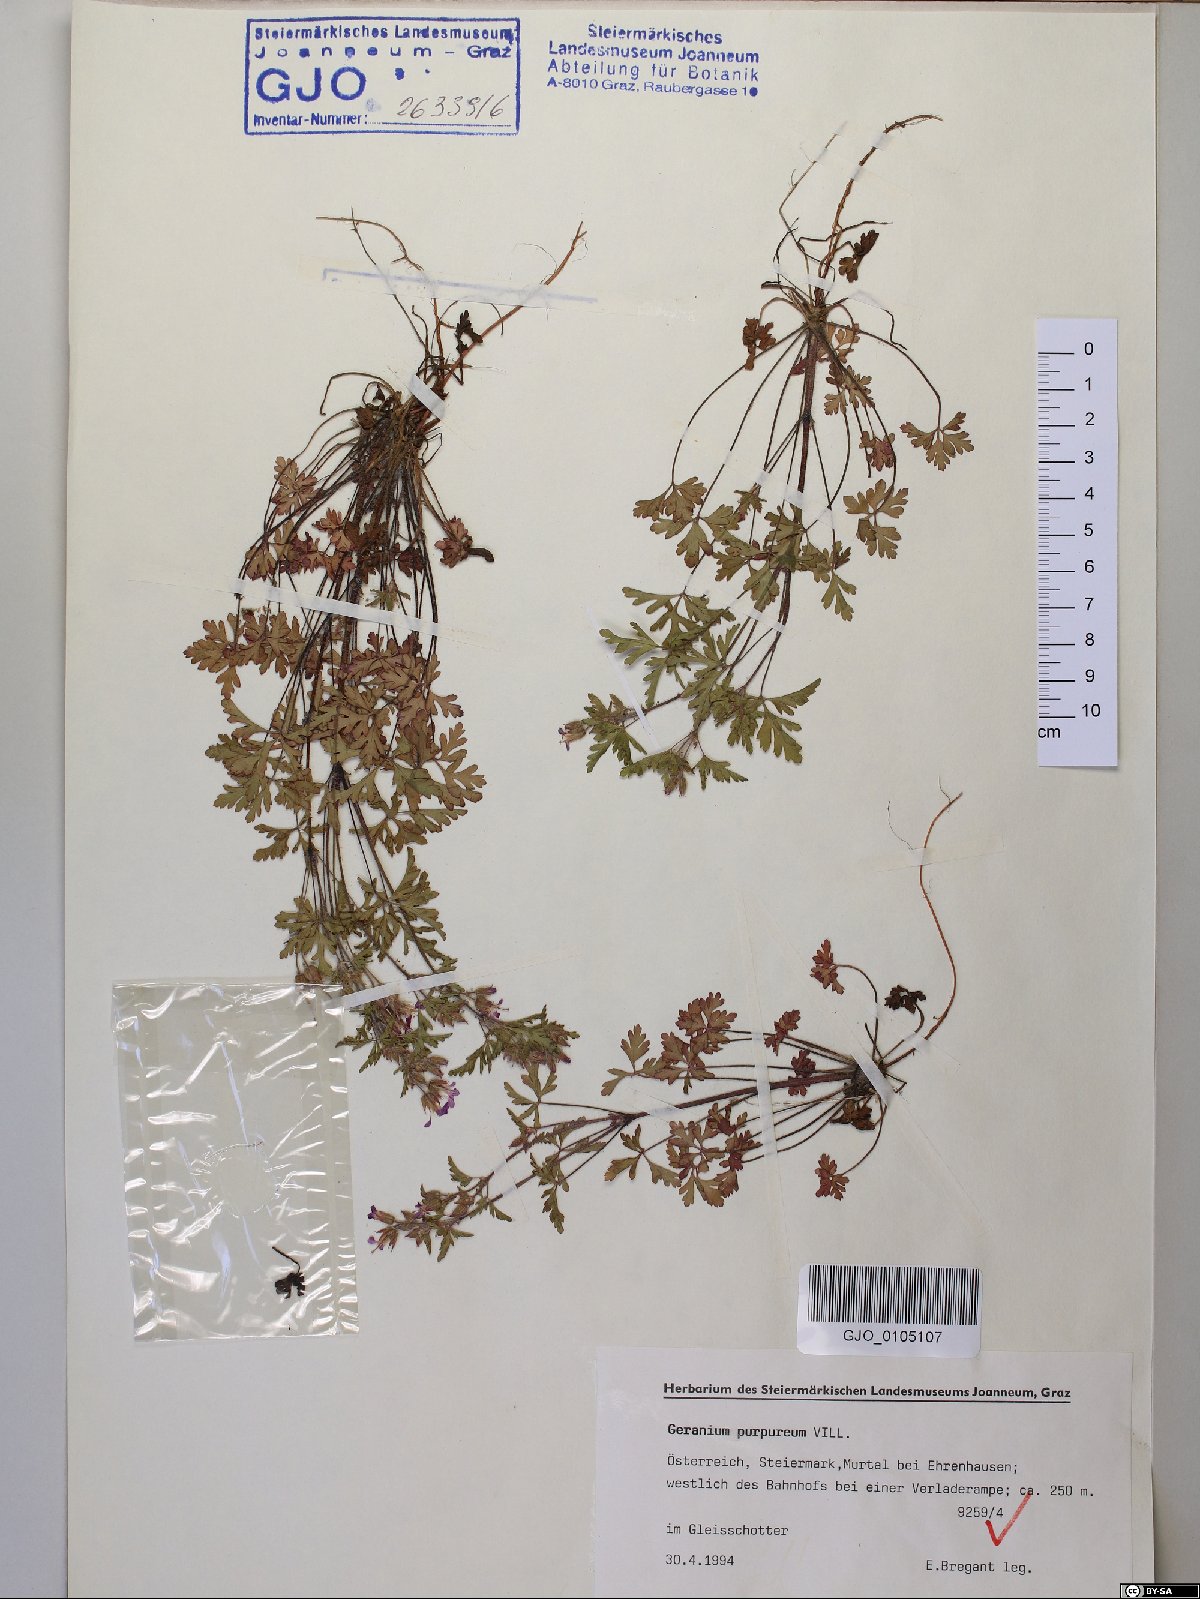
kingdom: Plantae
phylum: Tracheophyta
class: Magnoliopsida
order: Geraniales
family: Geraniaceae
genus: Geranium
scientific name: Geranium purpureum
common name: Little-robin
